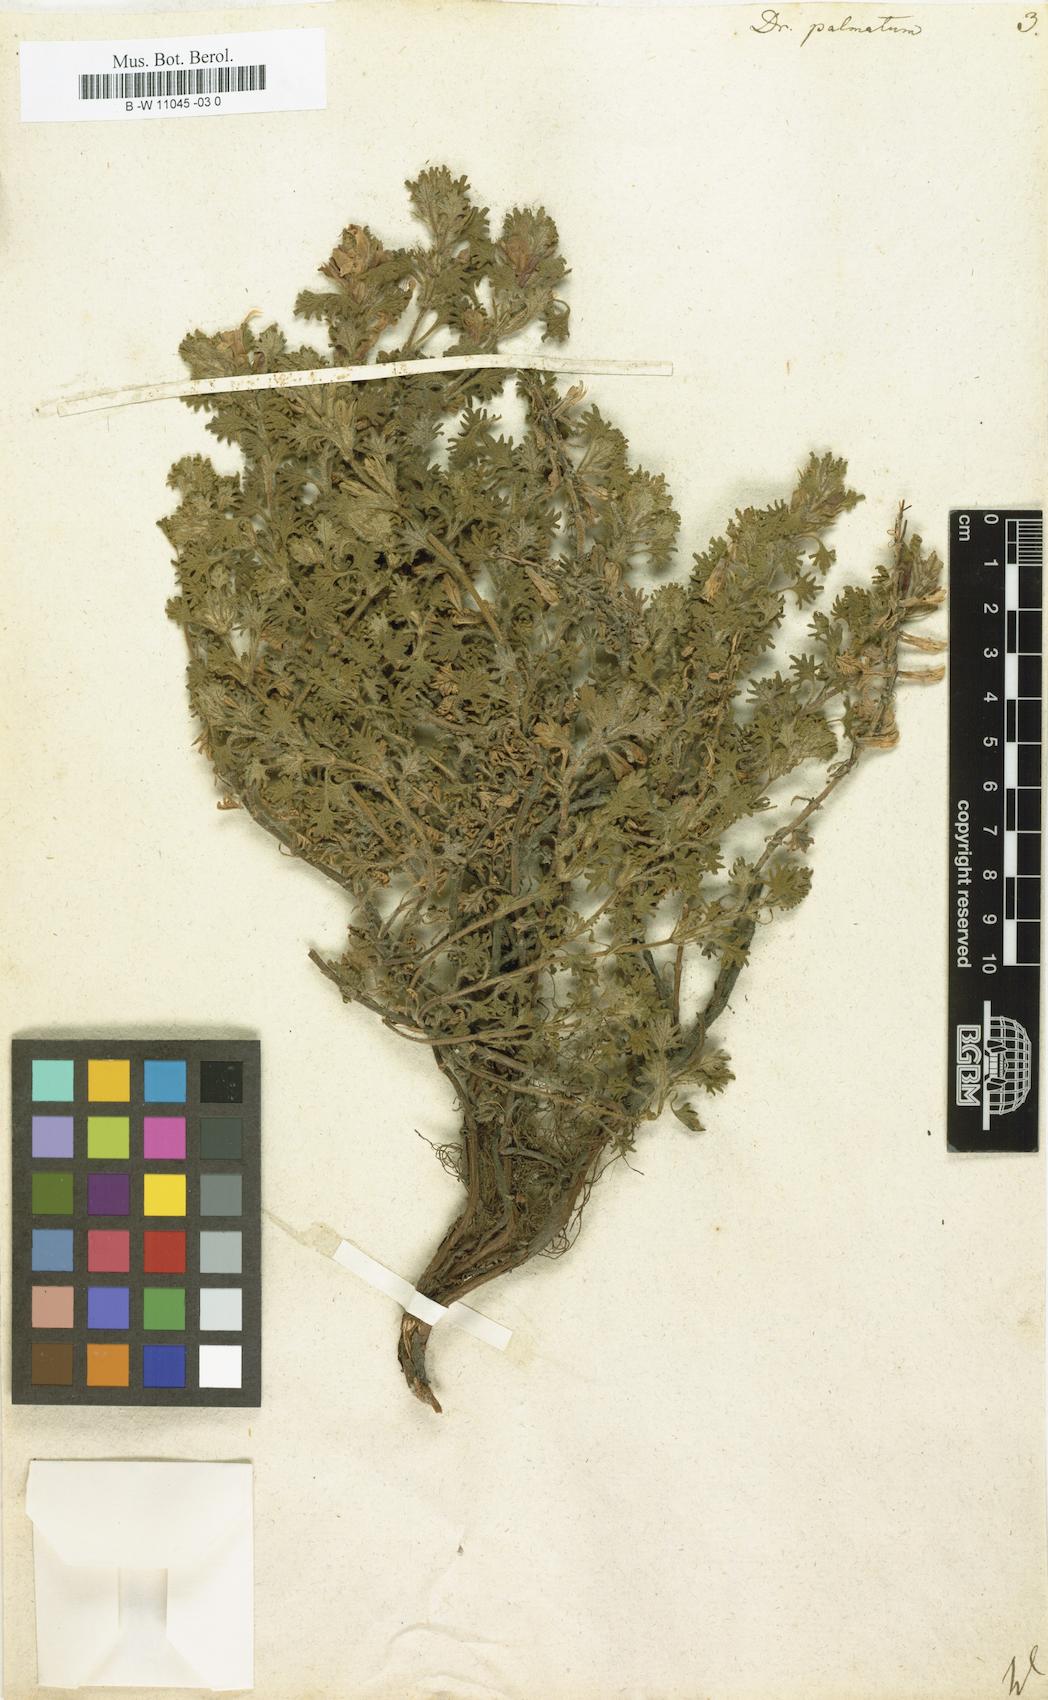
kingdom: Plantae
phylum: Tracheophyta
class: Magnoliopsida
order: Lamiales
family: Lamiaceae
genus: Dracocephalum
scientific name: Dracocephalum palmatum
